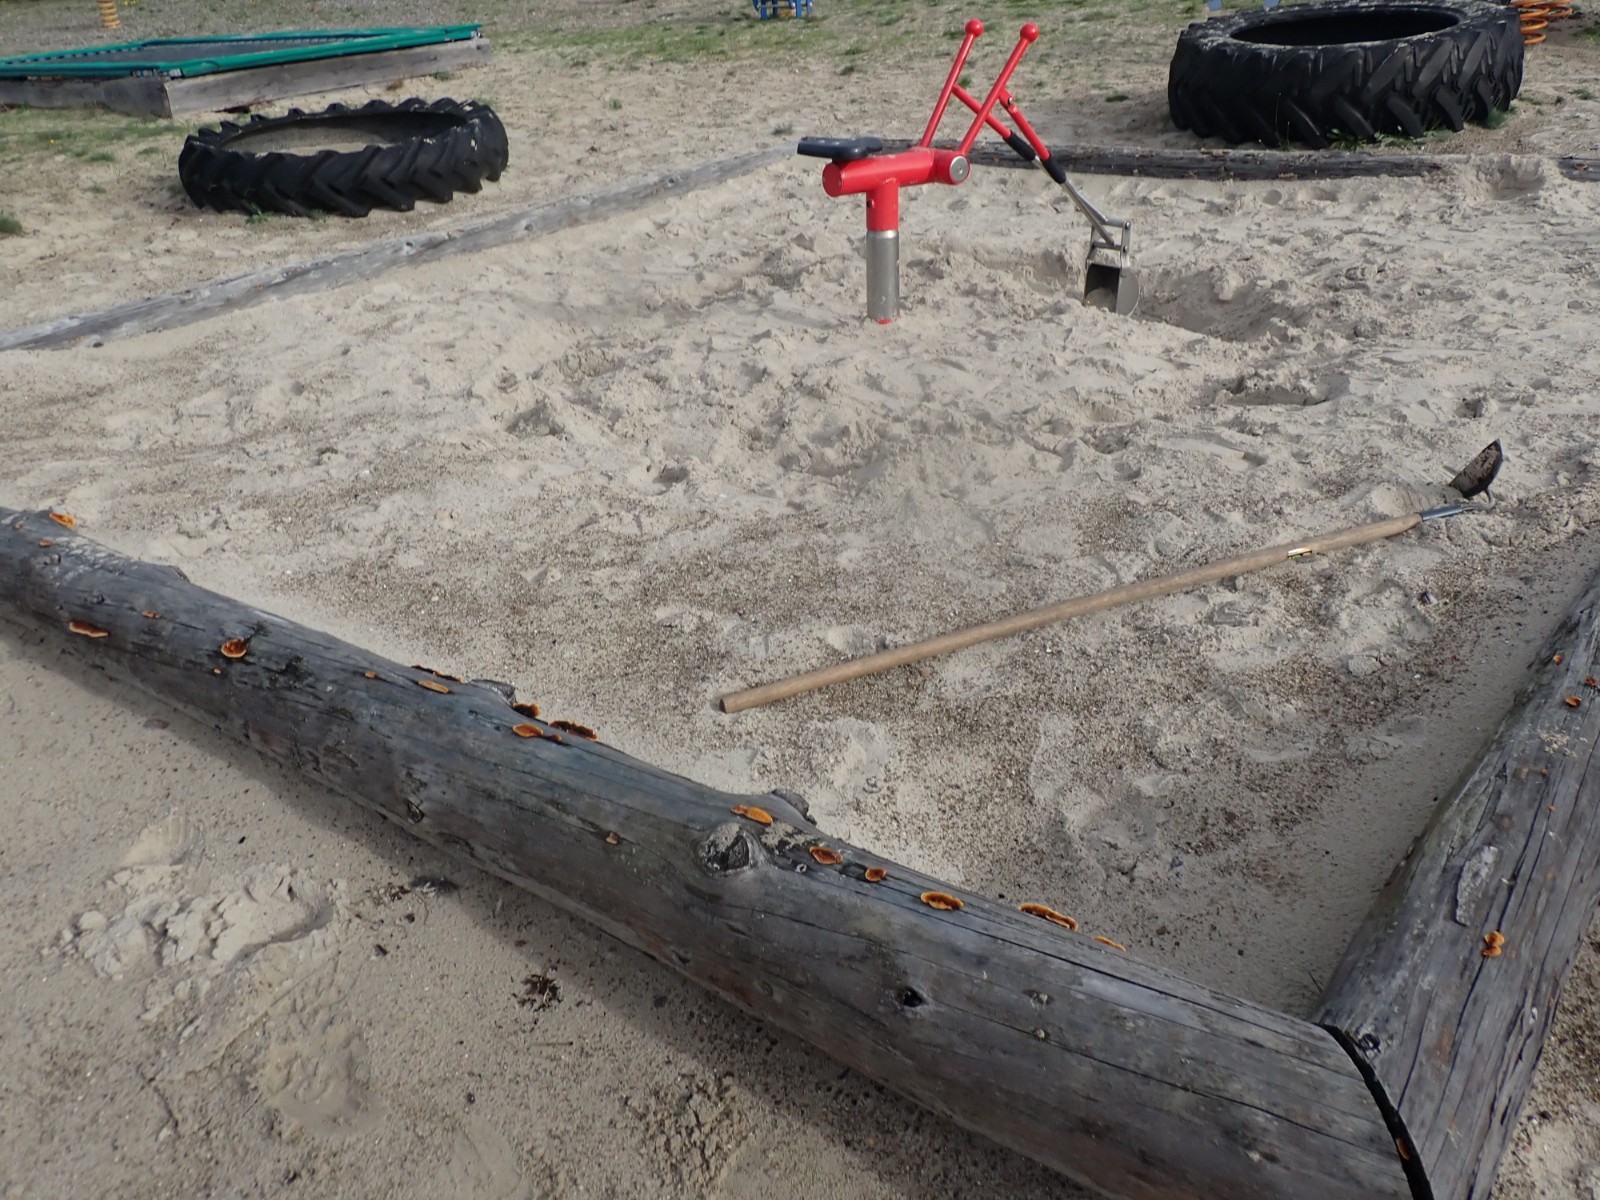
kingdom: Fungi
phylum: Basidiomycota
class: Agaricomycetes
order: Gloeophyllales
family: Gloeophyllaceae
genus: Gloeophyllum
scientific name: Gloeophyllum sepiarium
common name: fyrre-korkhat
